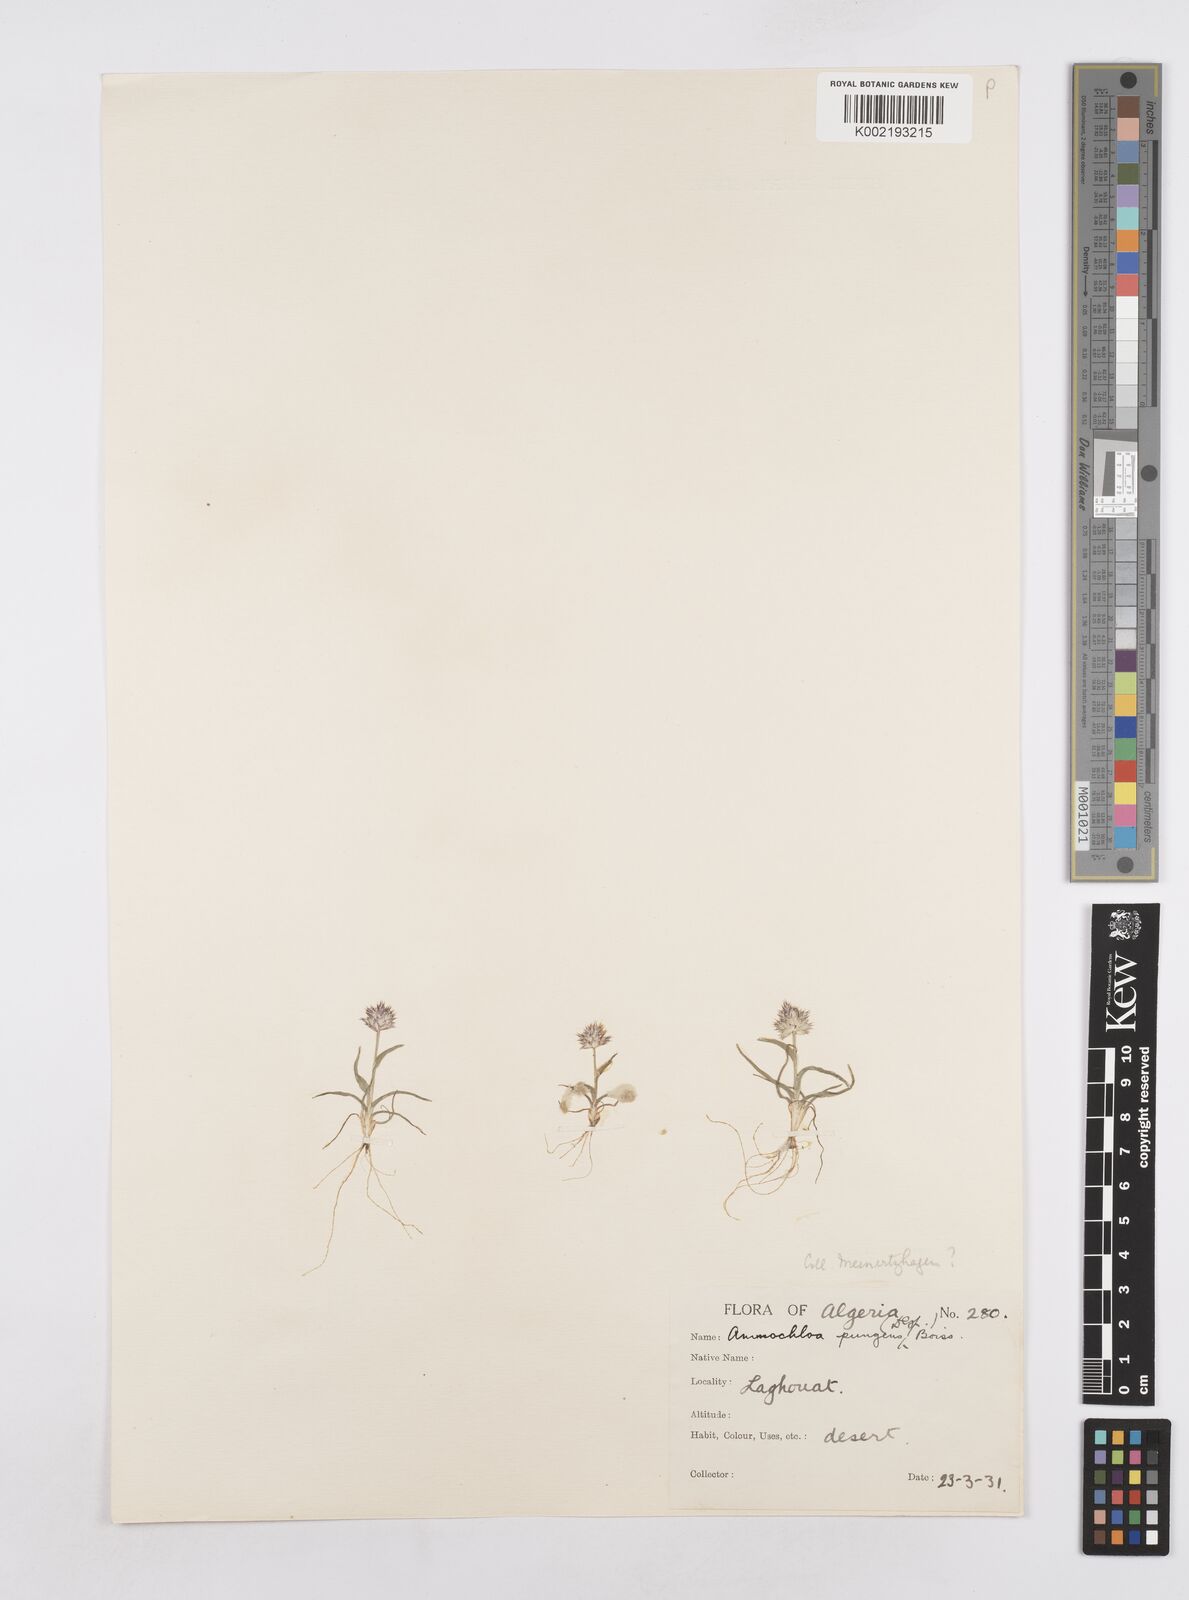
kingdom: Plantae
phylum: Tracheophyta
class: Liliopsida
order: Poales
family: Poaceae
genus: Ammochloa
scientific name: Ammochloa pungens
